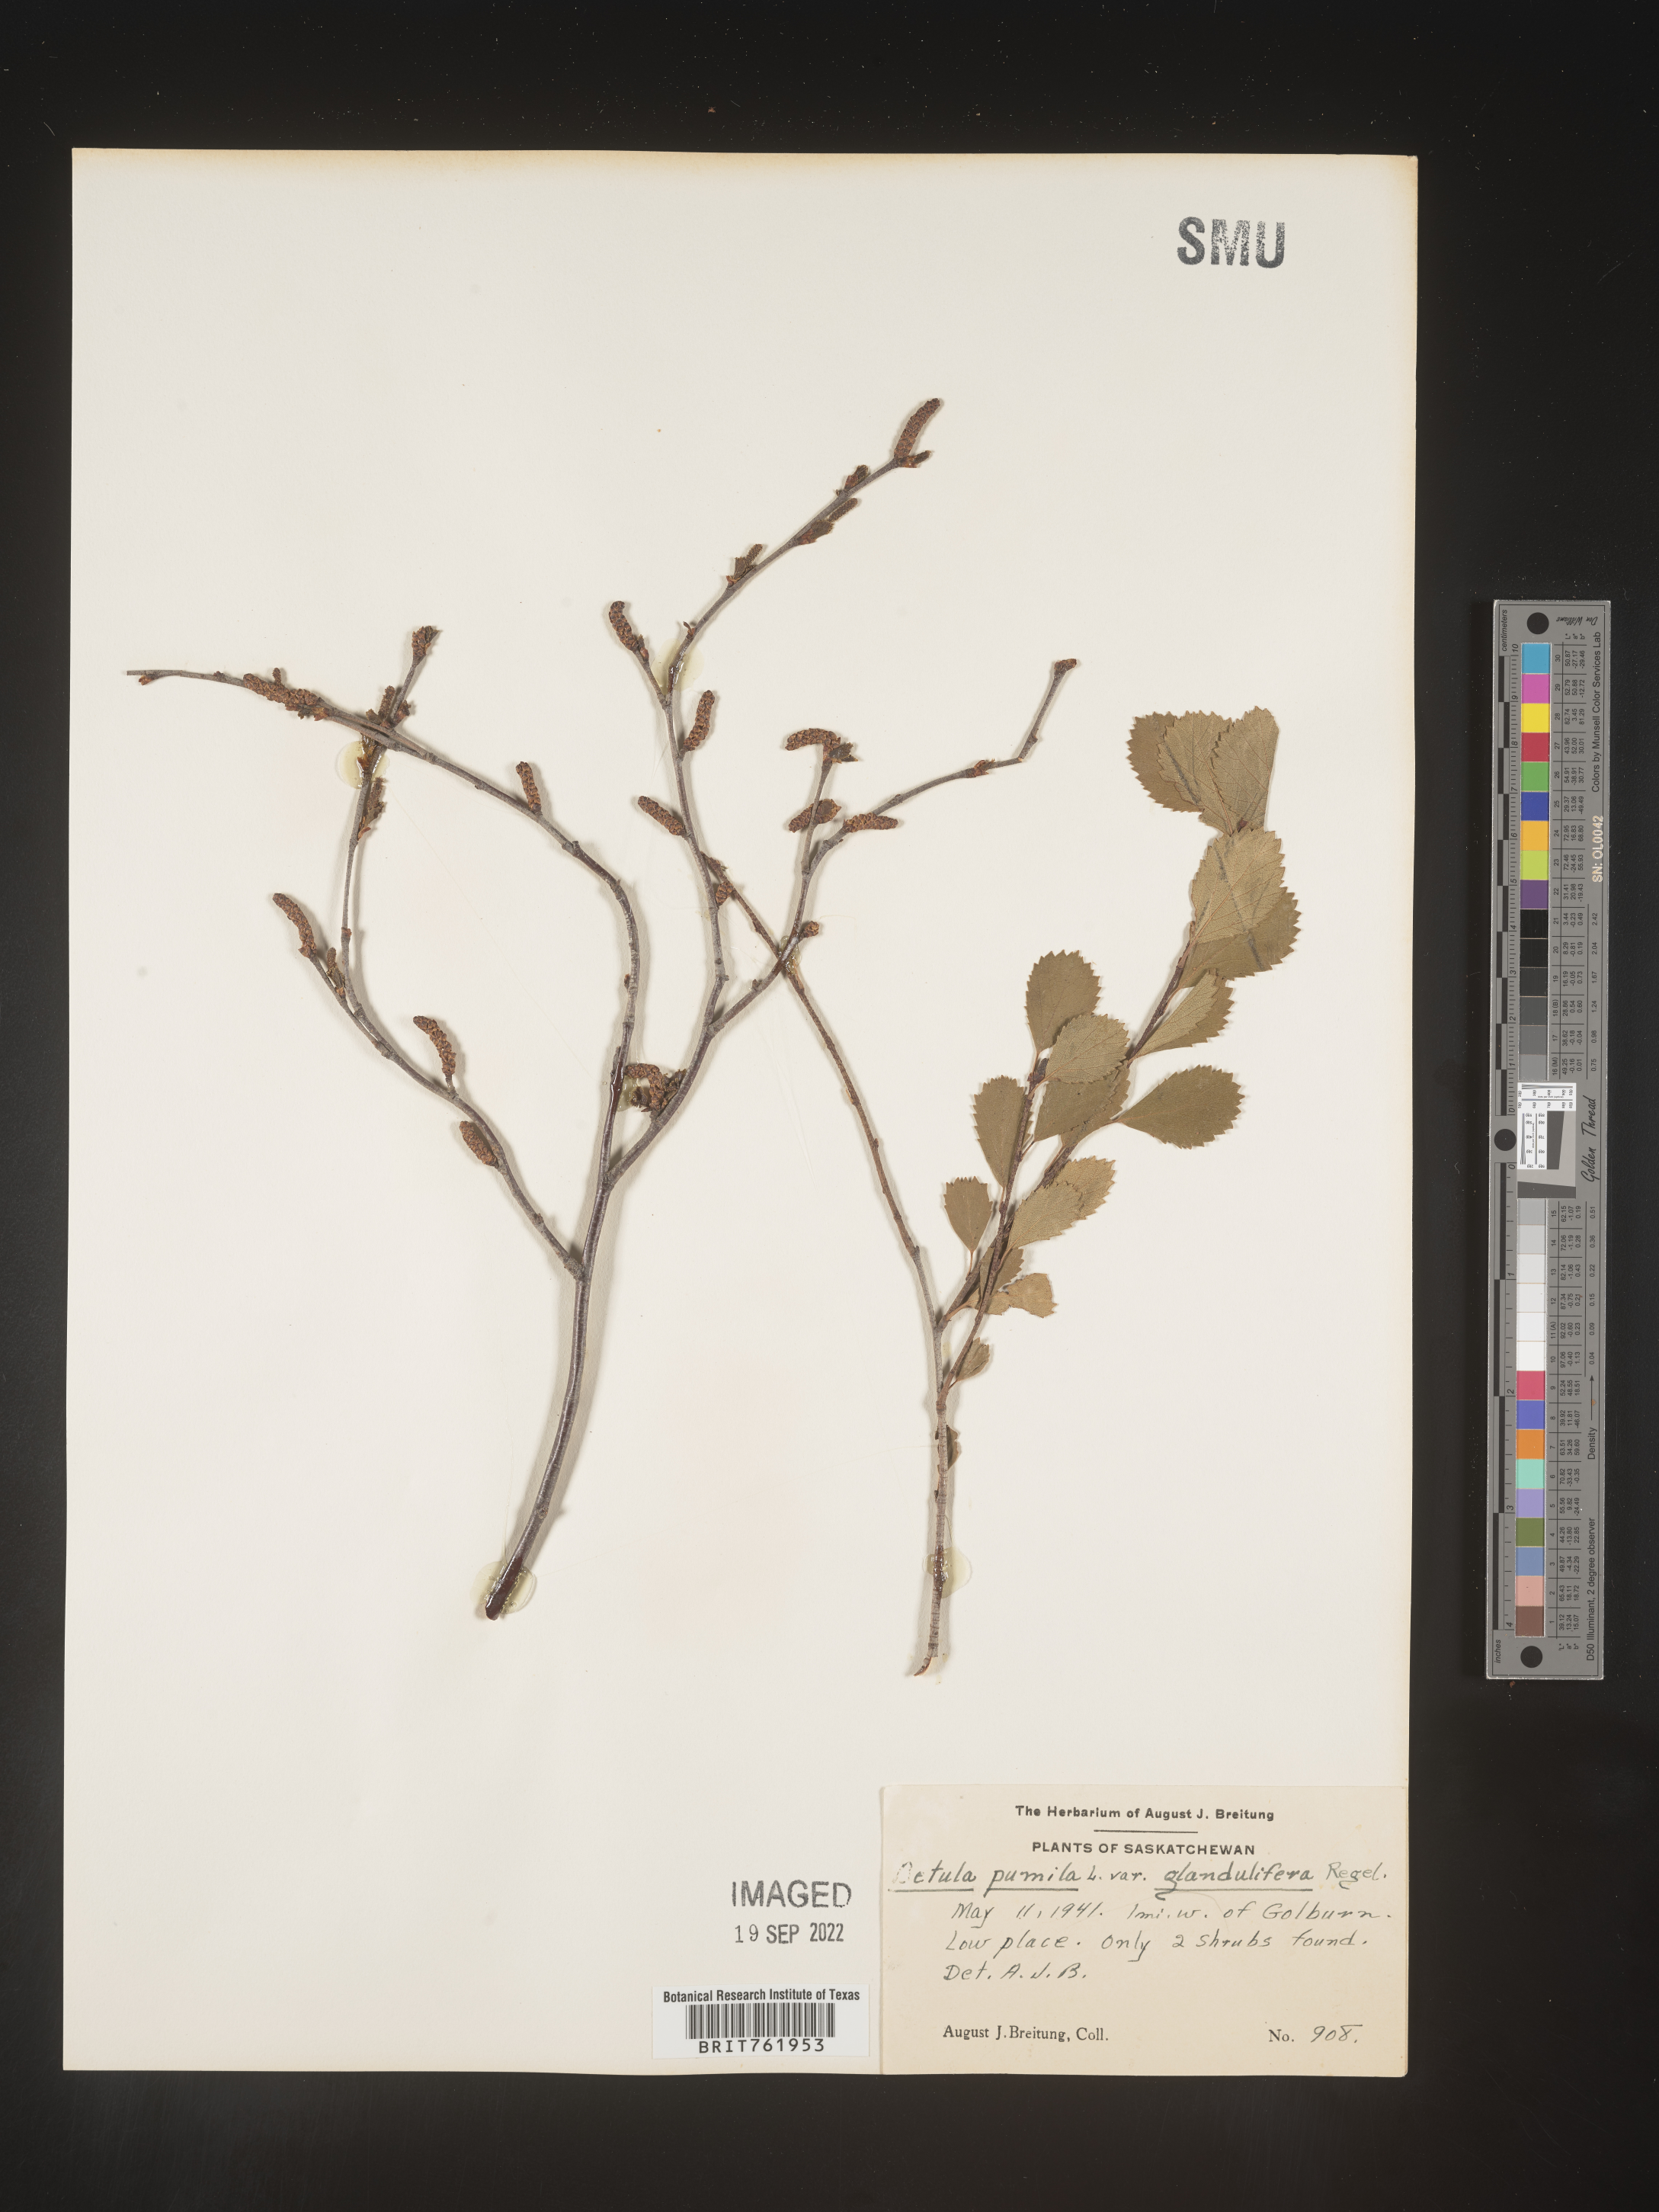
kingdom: Plantae
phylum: Tracheophyta
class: Magnoliopsida
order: Fagales
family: Betulaceae
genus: Betula
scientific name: Betula pumila
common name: Bog birch
